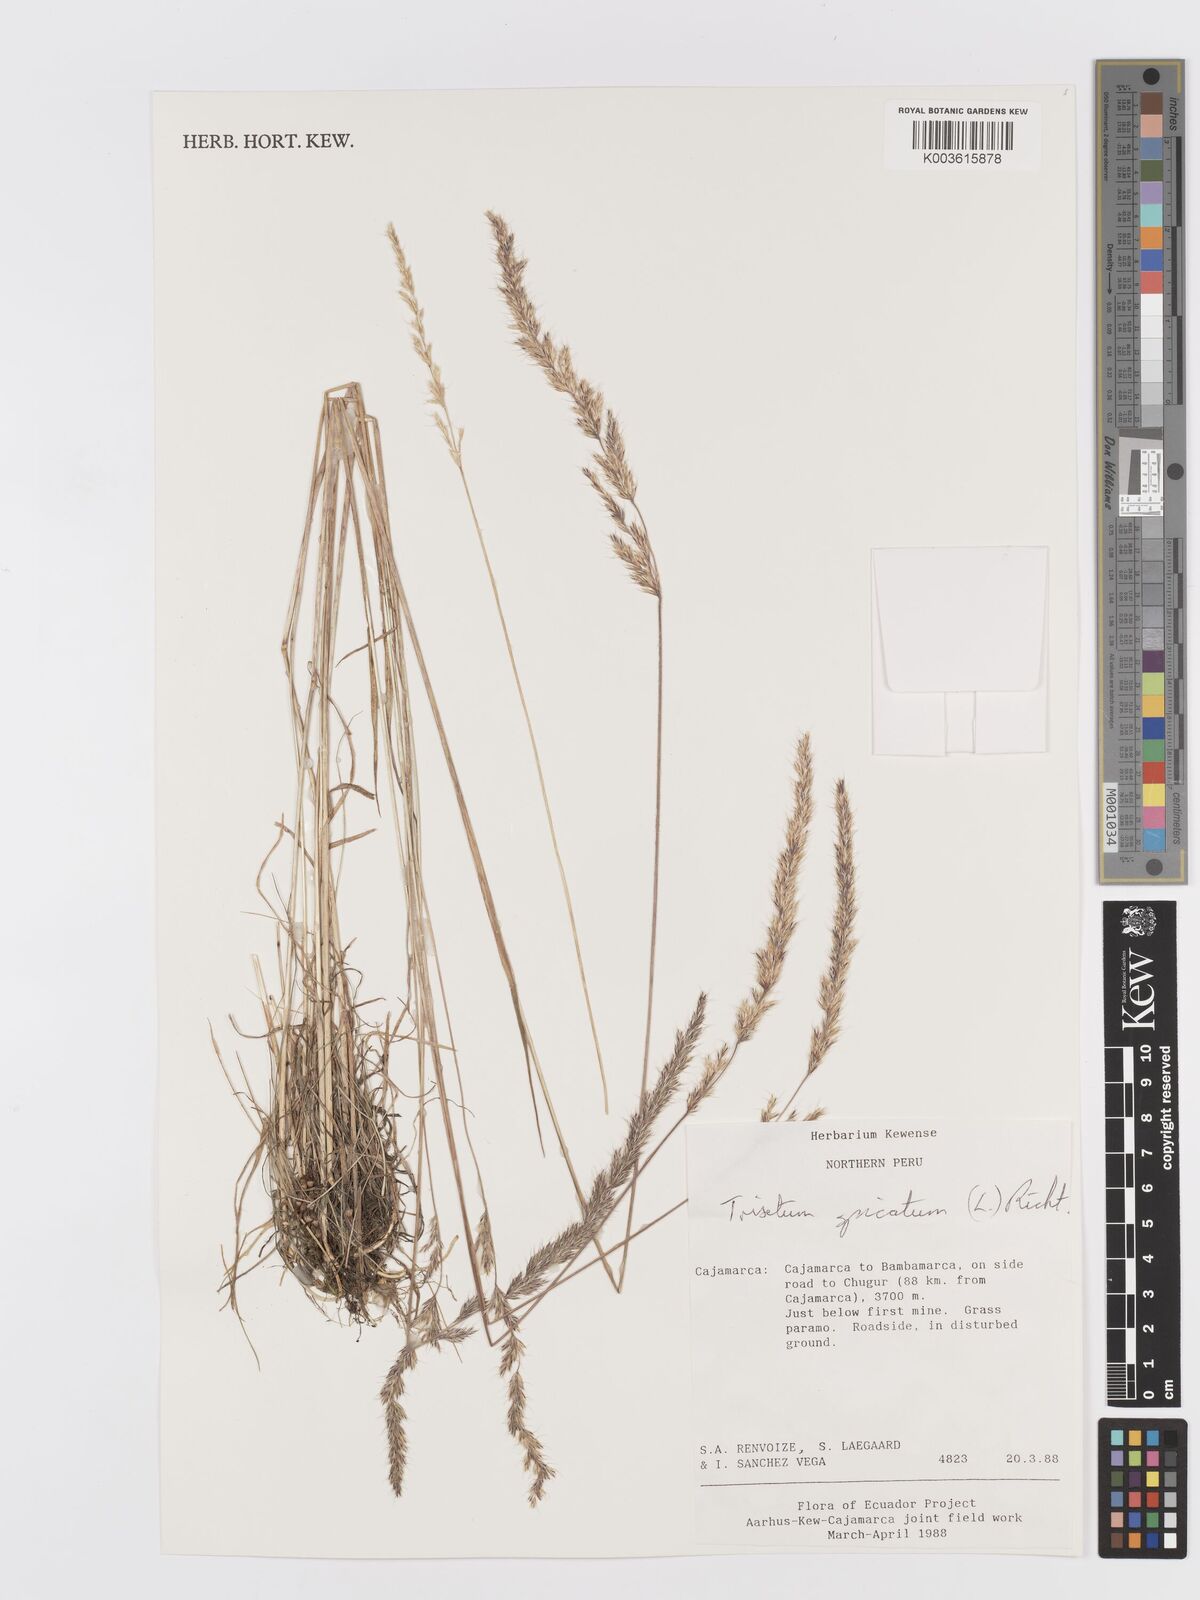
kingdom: Plantae
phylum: Tracheophyta
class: Liliopsida
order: Poales
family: Poaceae
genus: Koeleria
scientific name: Koeleria spicata
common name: Mountain trisetum
